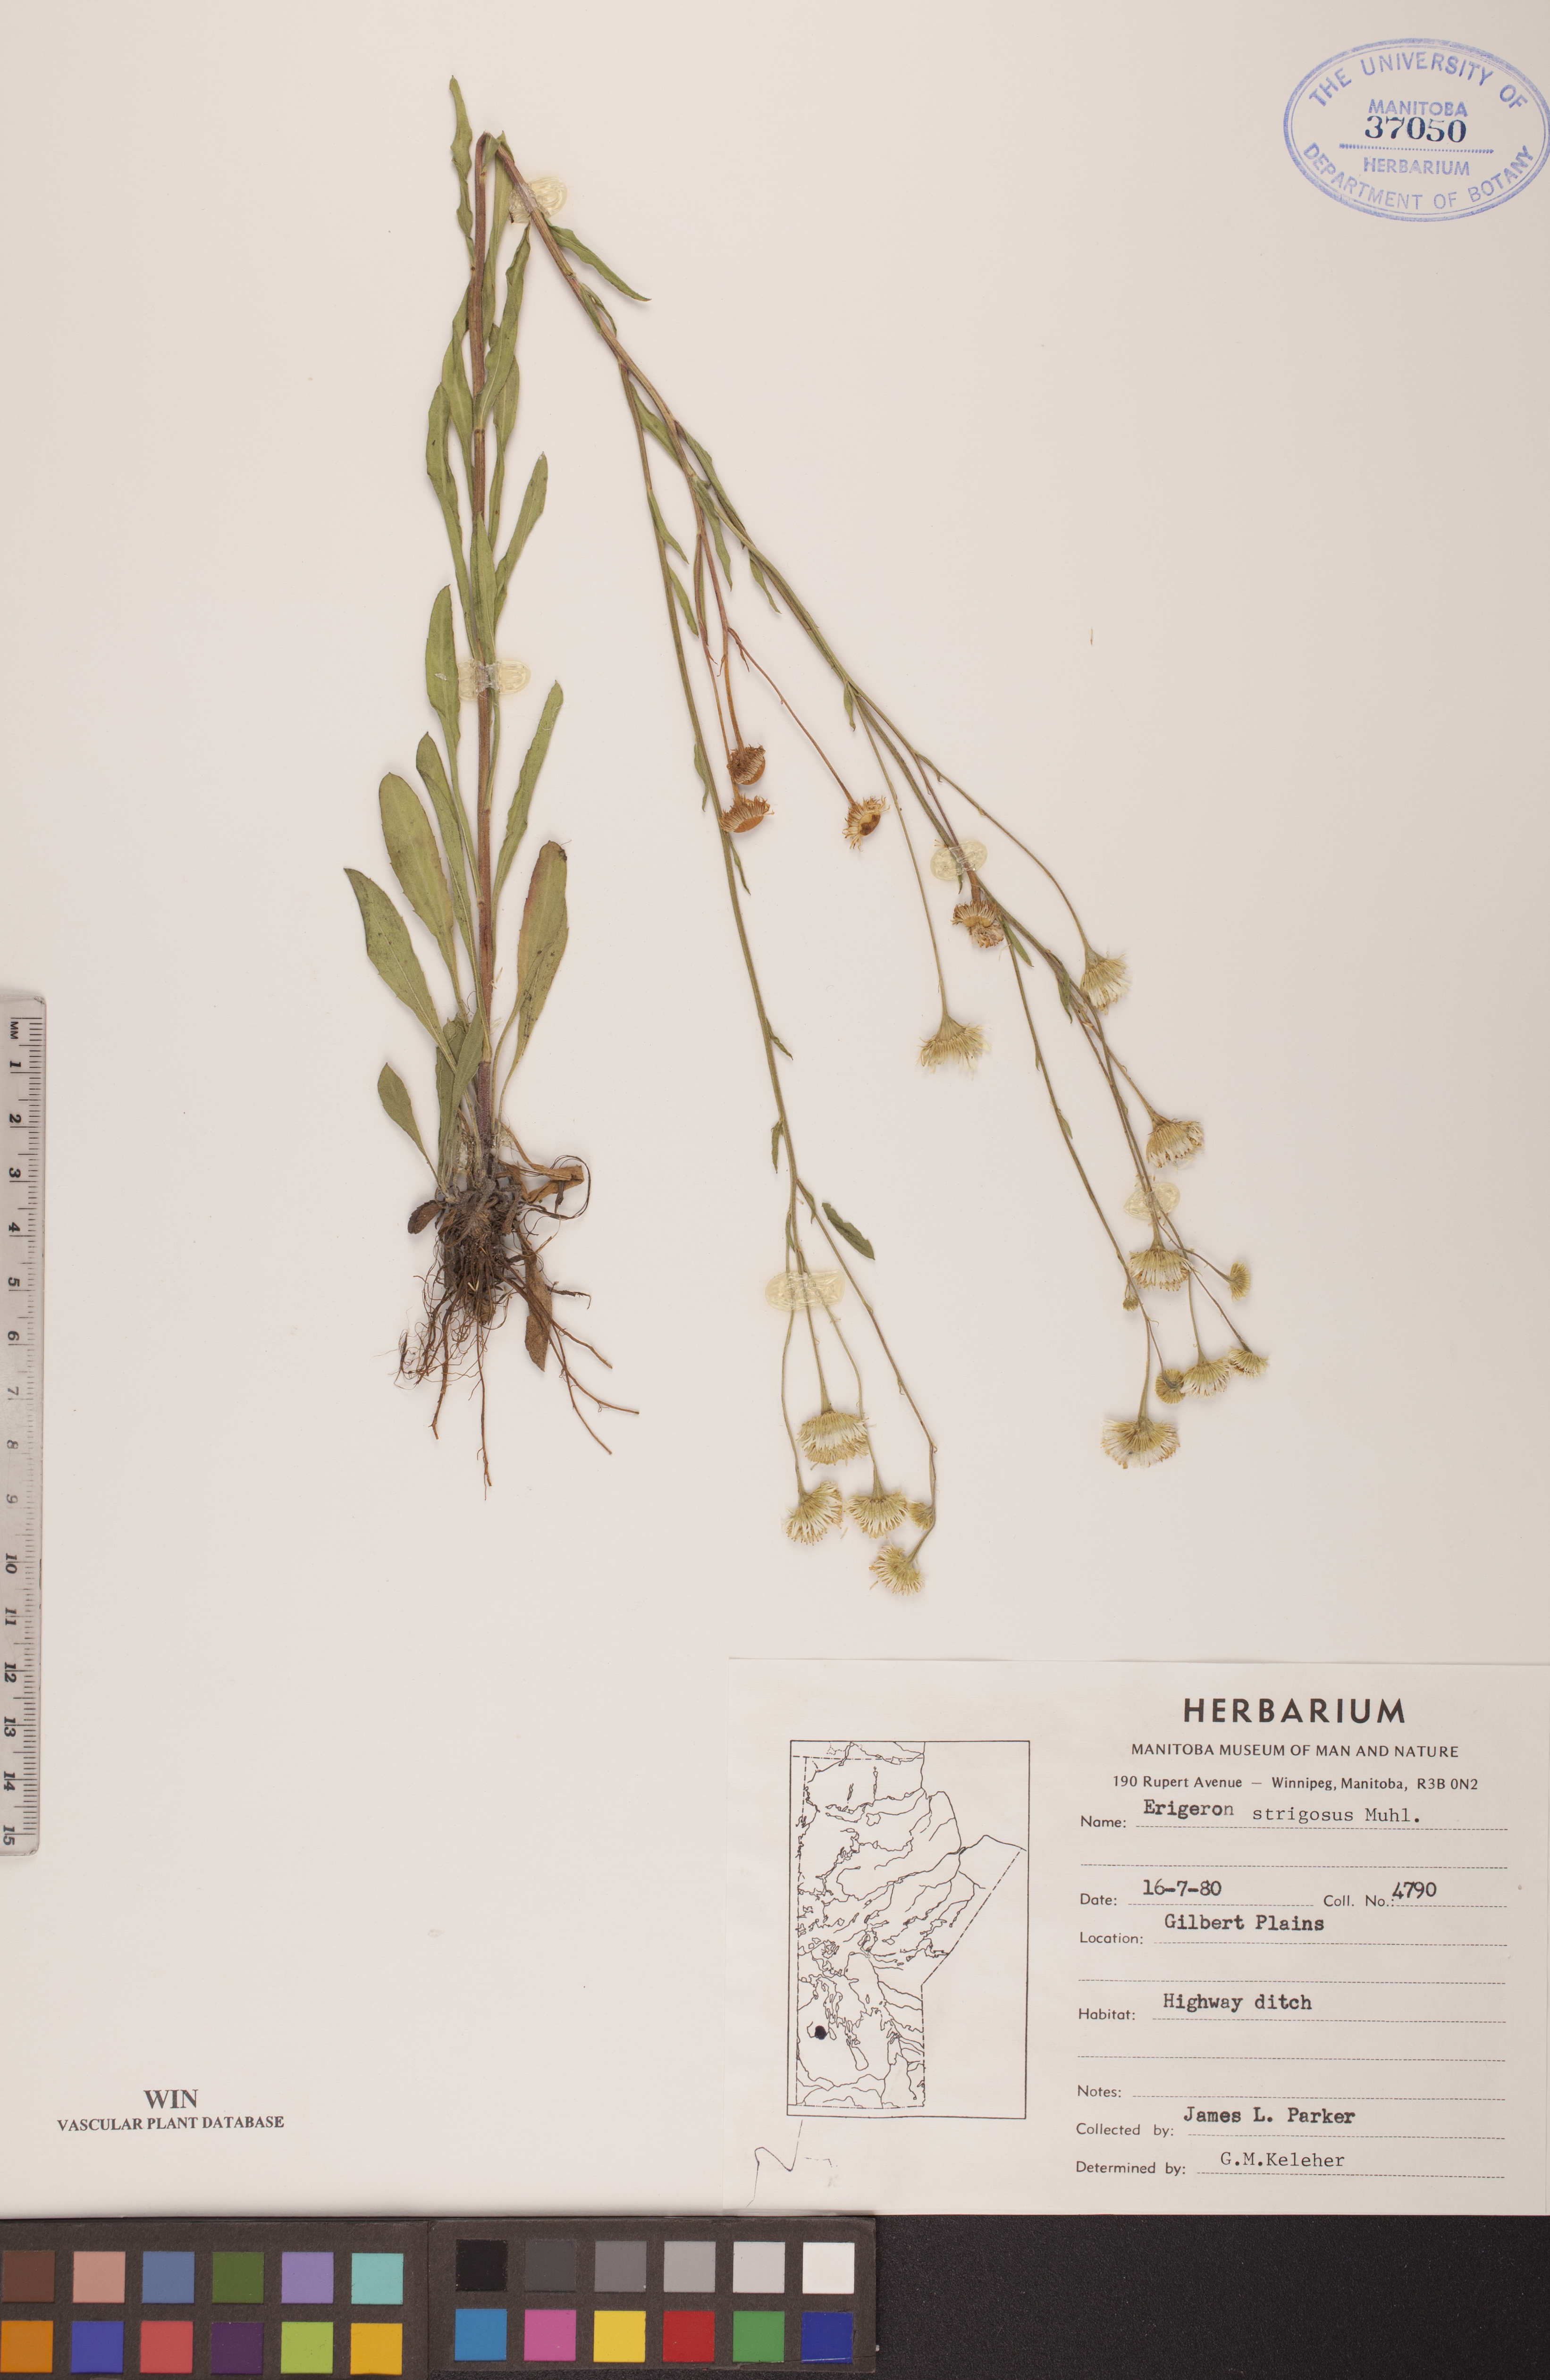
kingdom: Plantae
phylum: Tracheophyta
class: Magnoliopsida
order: Asterales
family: Asteraceae
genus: Erigeron
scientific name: Erigeron strigosus
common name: Common eastern fleabane
